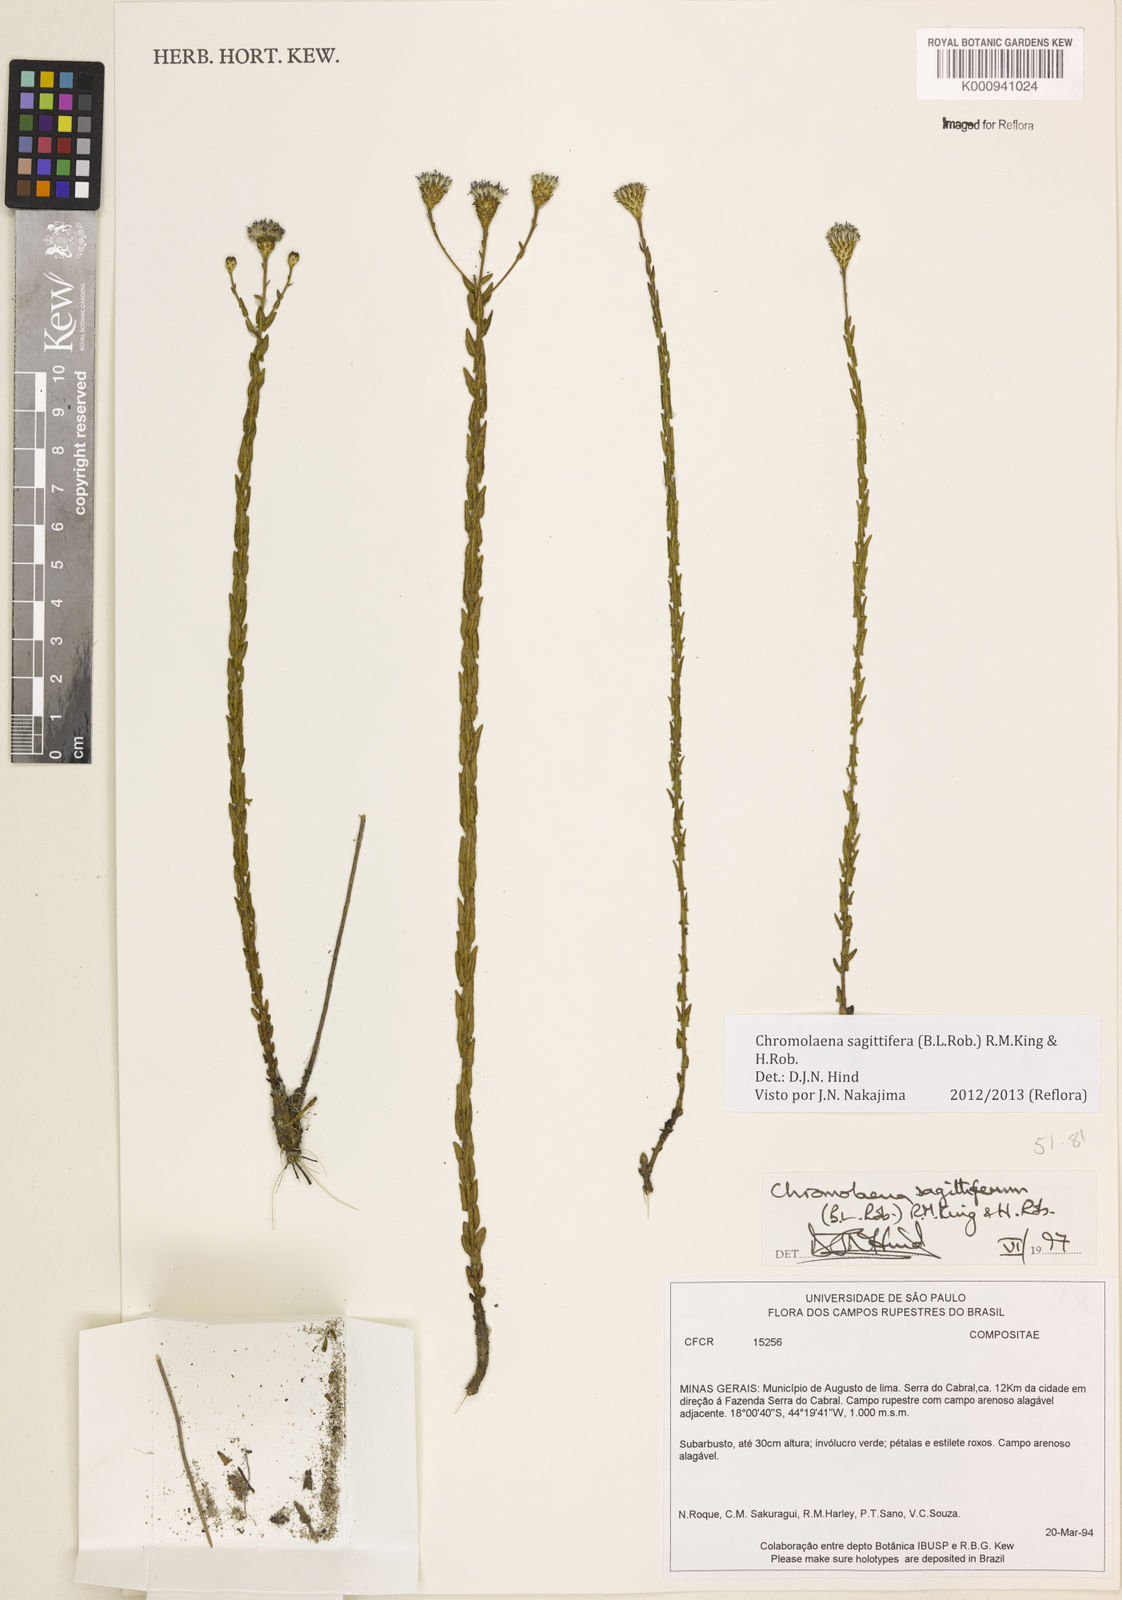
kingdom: Plantae
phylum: Tracheophyta
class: Magnoliopsida
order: Asterales
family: Asteraceae
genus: Chromolaena
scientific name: Chromolaena sagittifera
